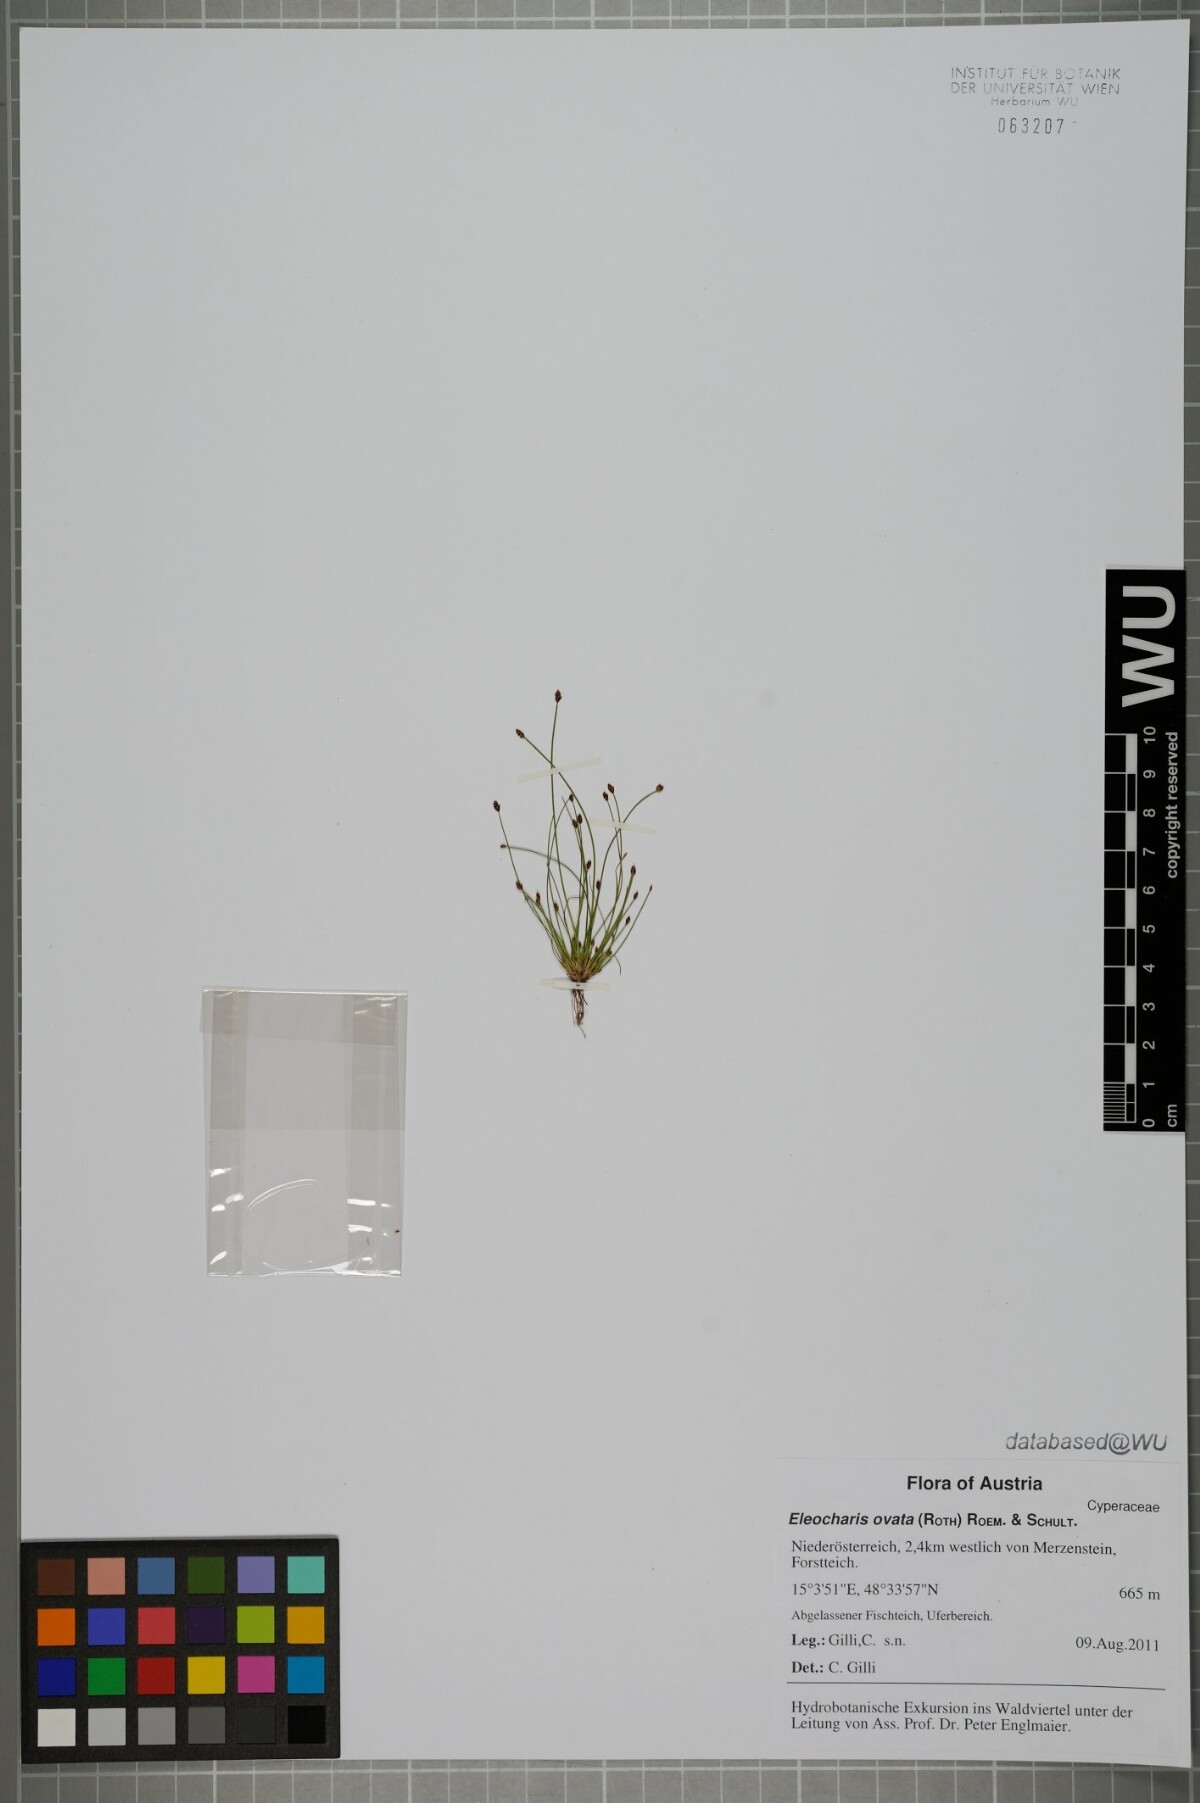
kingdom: Plantae
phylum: Tracheophyta
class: Liliopsida
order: Poales
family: Cyperaceae
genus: Eleocharis
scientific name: Eleocharis ovata
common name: Oval spike-rush
